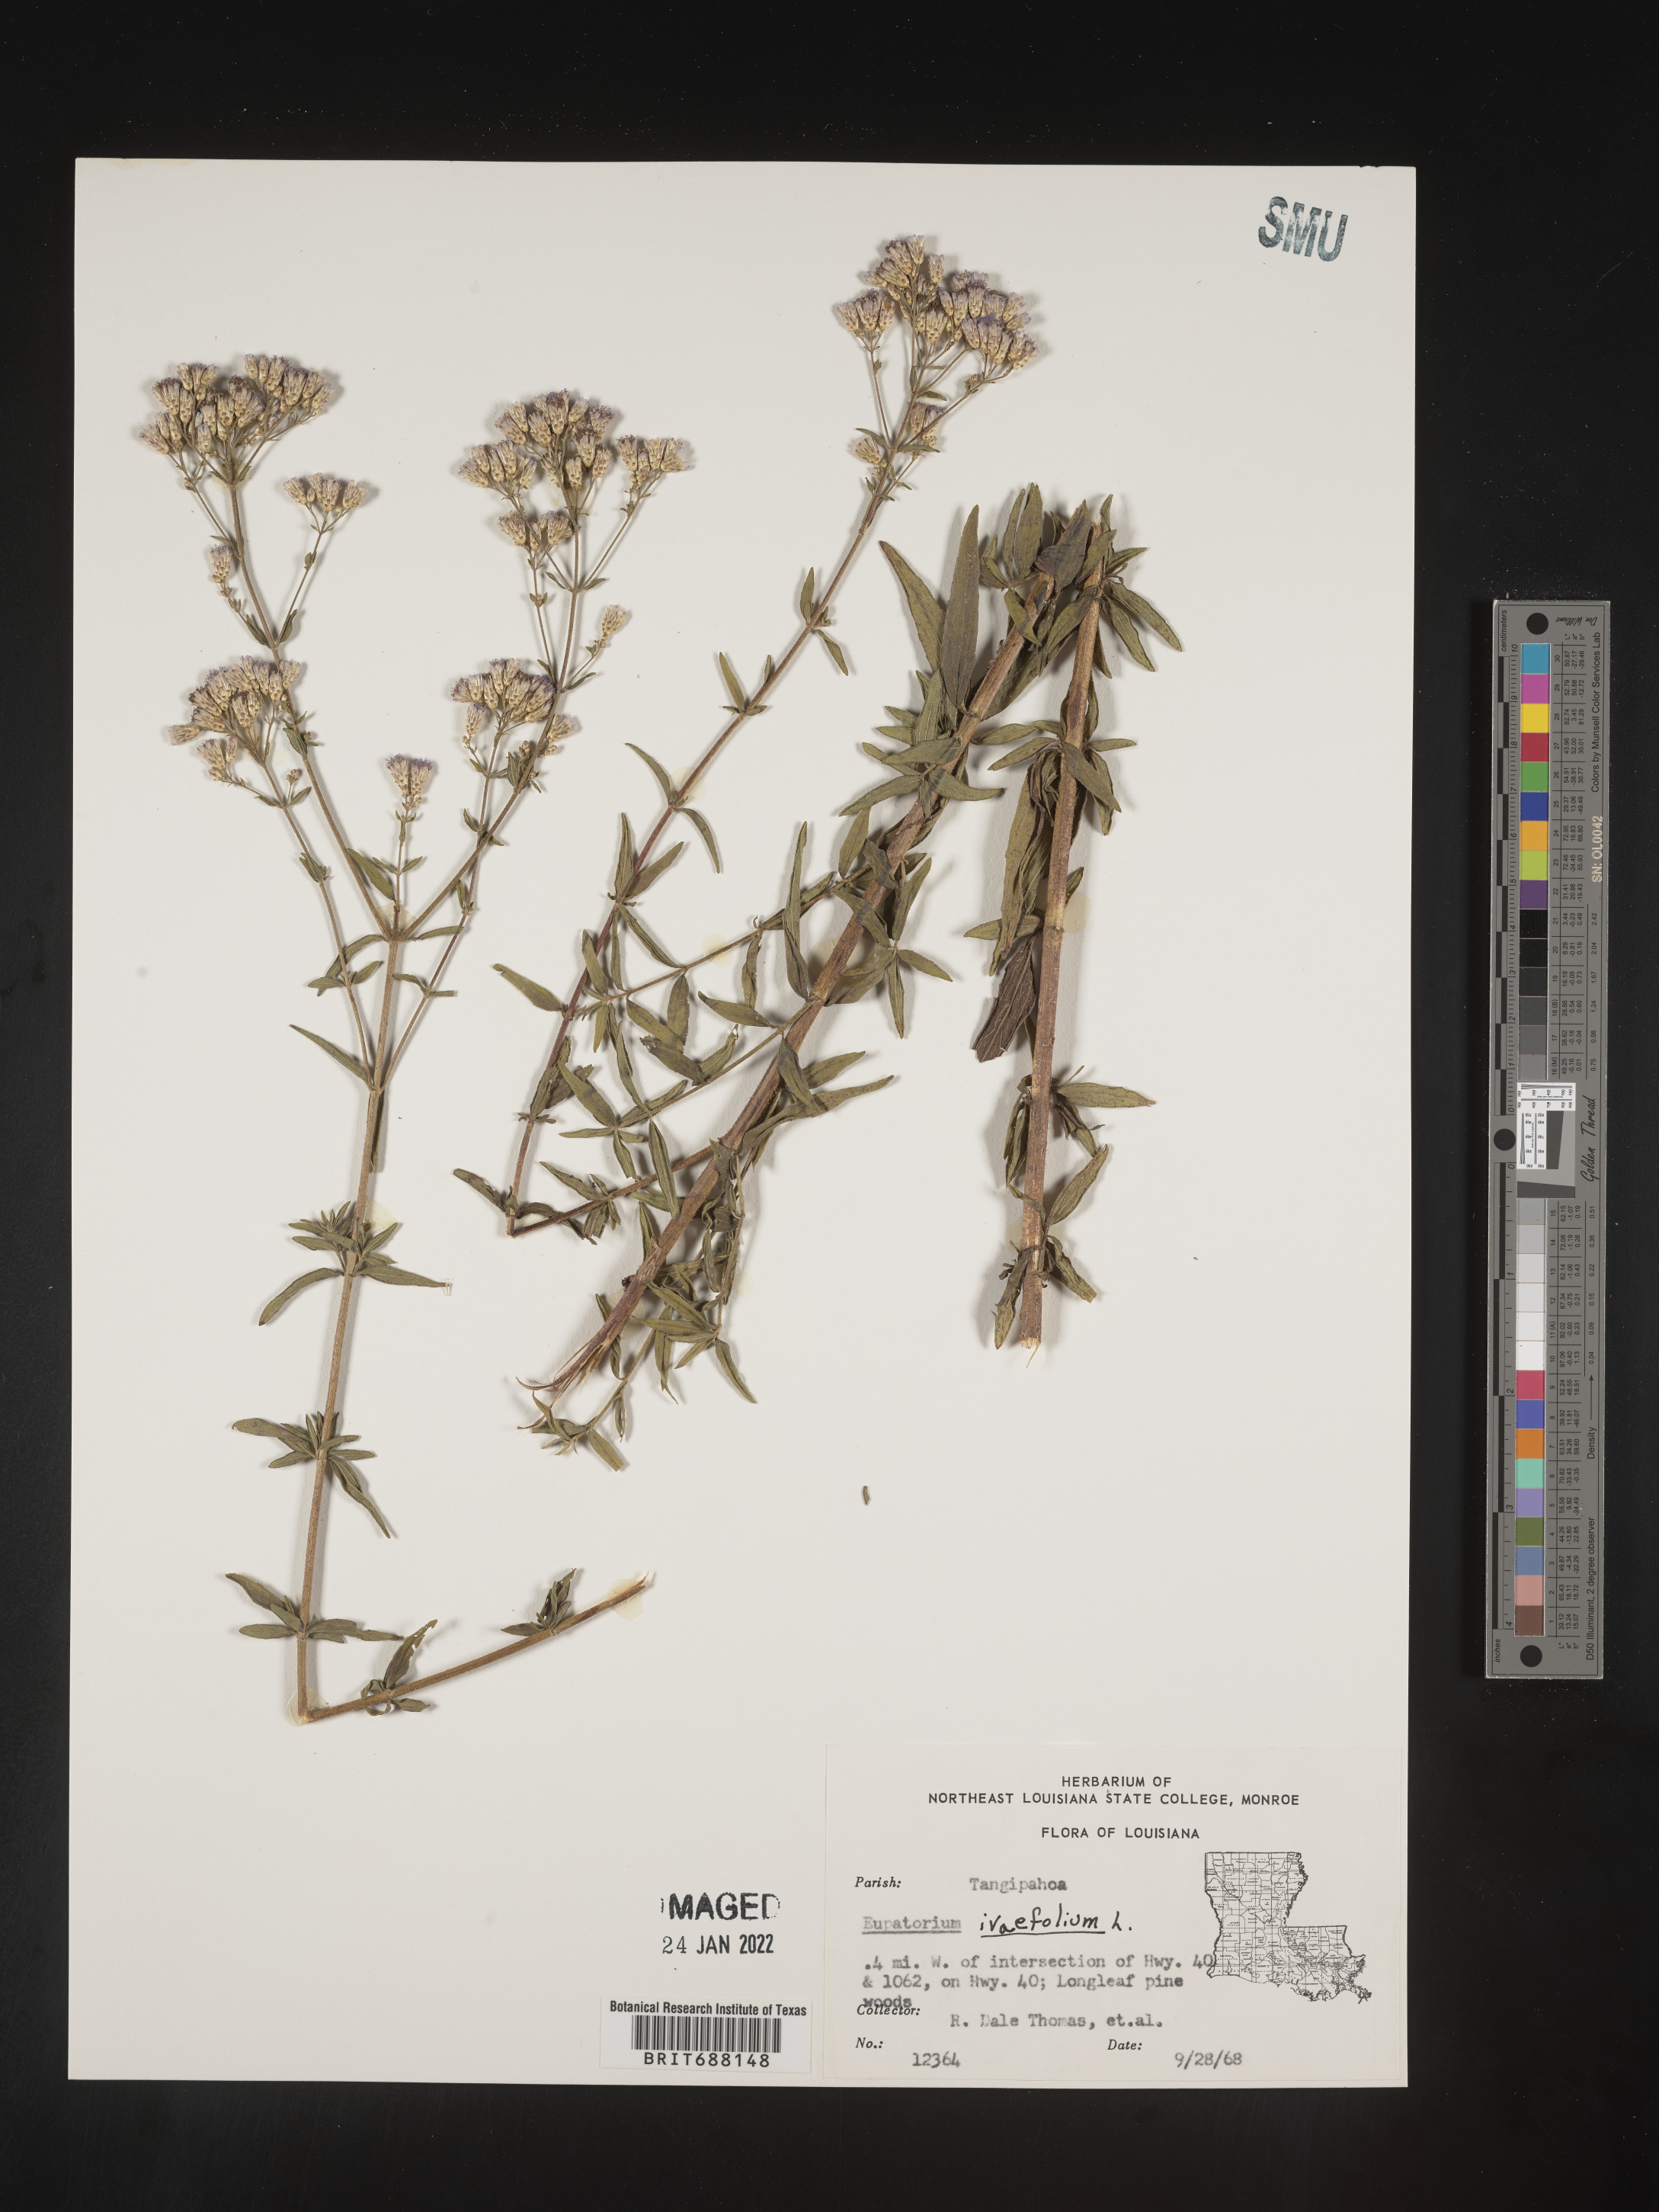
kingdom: Plantae
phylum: Tracheophyta
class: Magnoliopsida
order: Asterales
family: Asteraceae
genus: Chromolaena
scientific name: Chromolaena ivifolia
